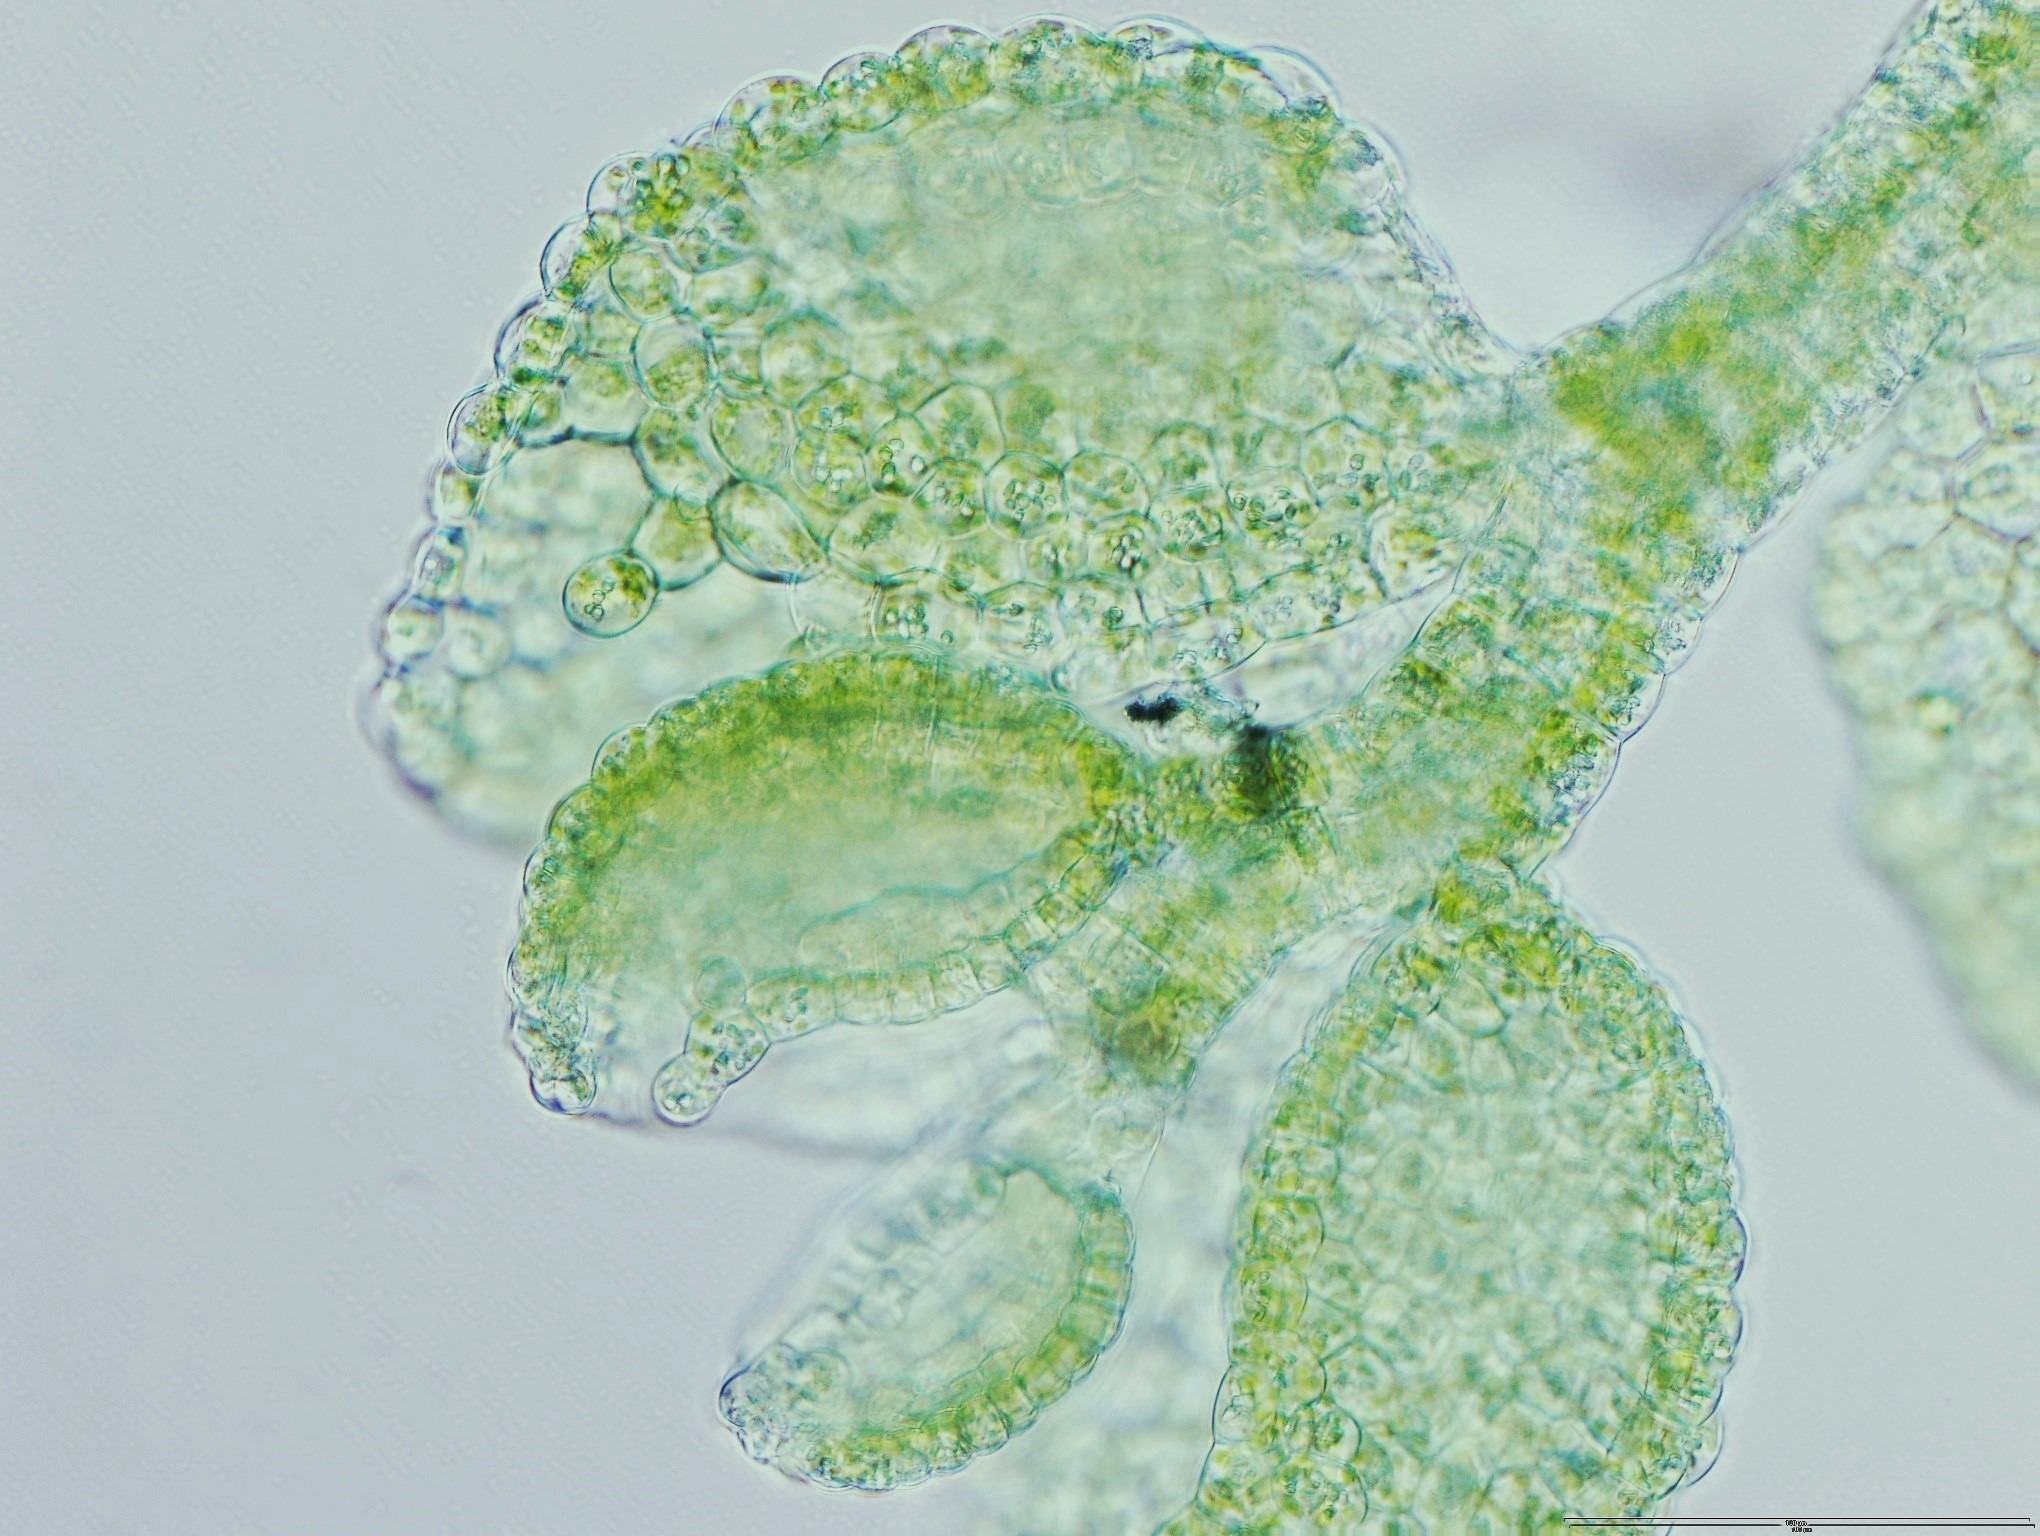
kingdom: Plantae
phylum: Marchantiophyta
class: Jungermanniopsida
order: Porellales
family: Lejeuneaceae
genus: Myriocoleopsis
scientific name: Myriocoleopsis minutissima
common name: Liden pungmos
